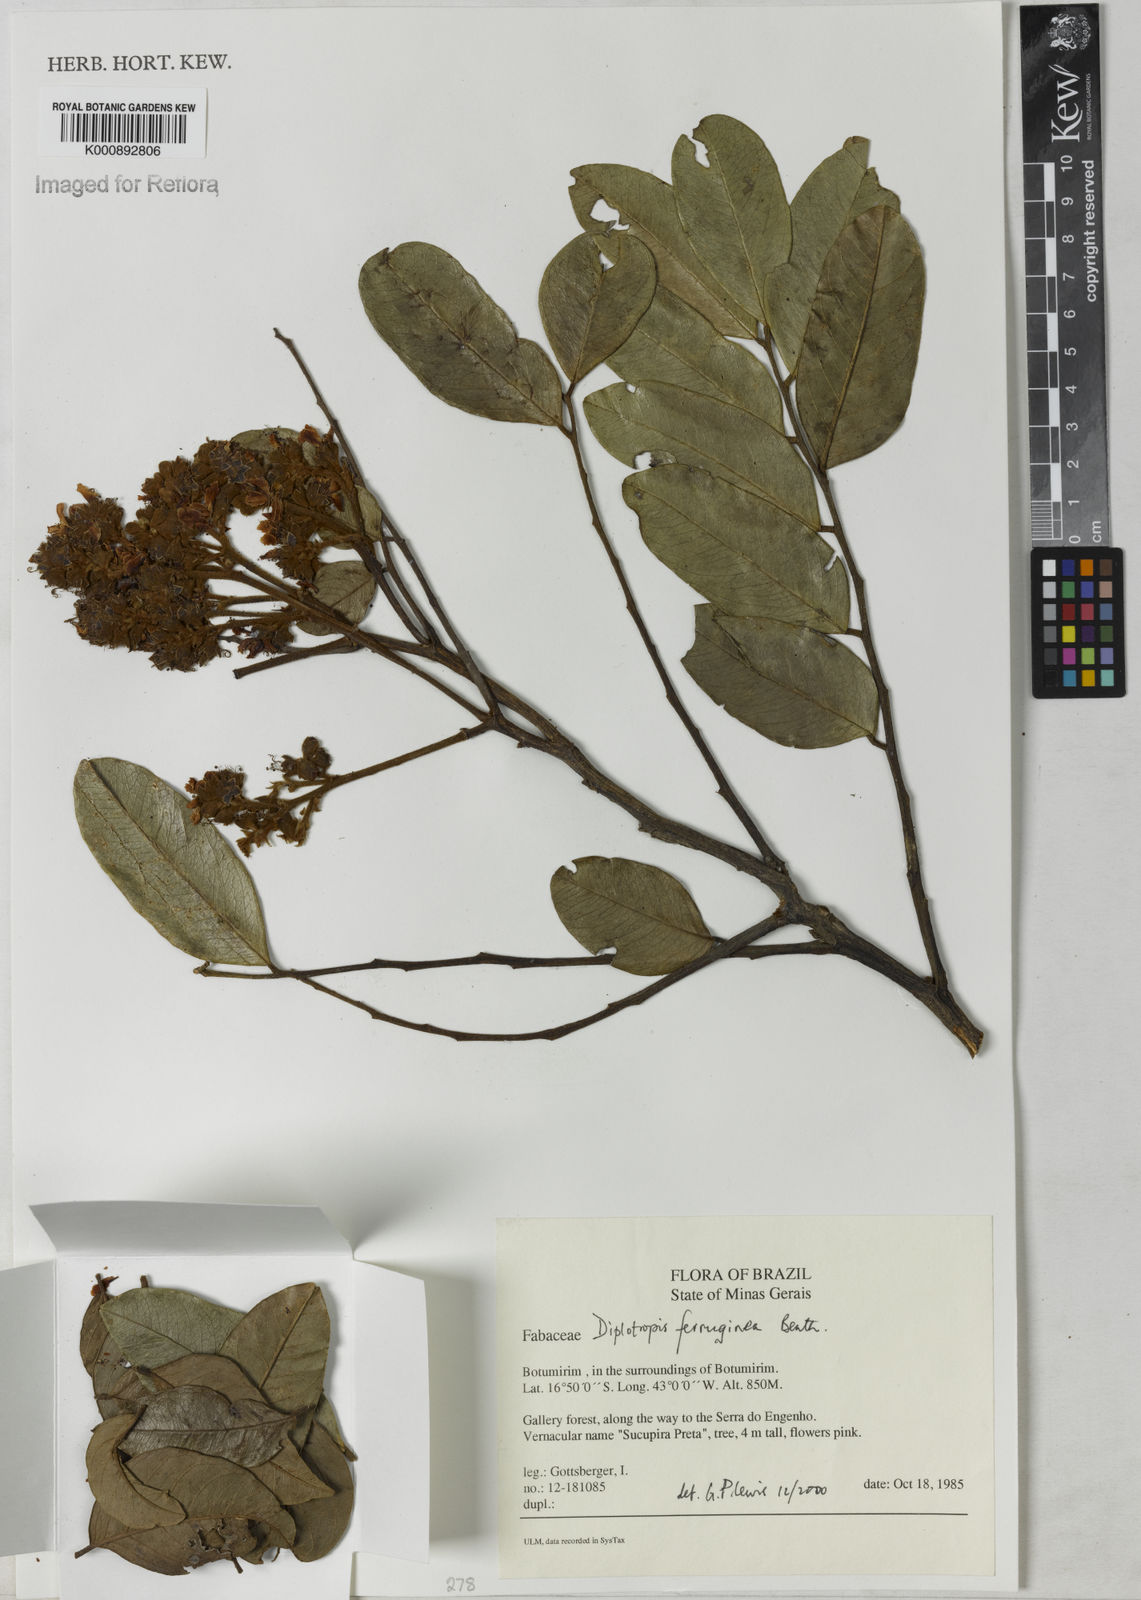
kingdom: Plantae
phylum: Tracheophyta
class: Magnoliopsida
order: Fabales
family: Fabaceae
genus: Diplotropis
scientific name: Diplotropis ferruginea
